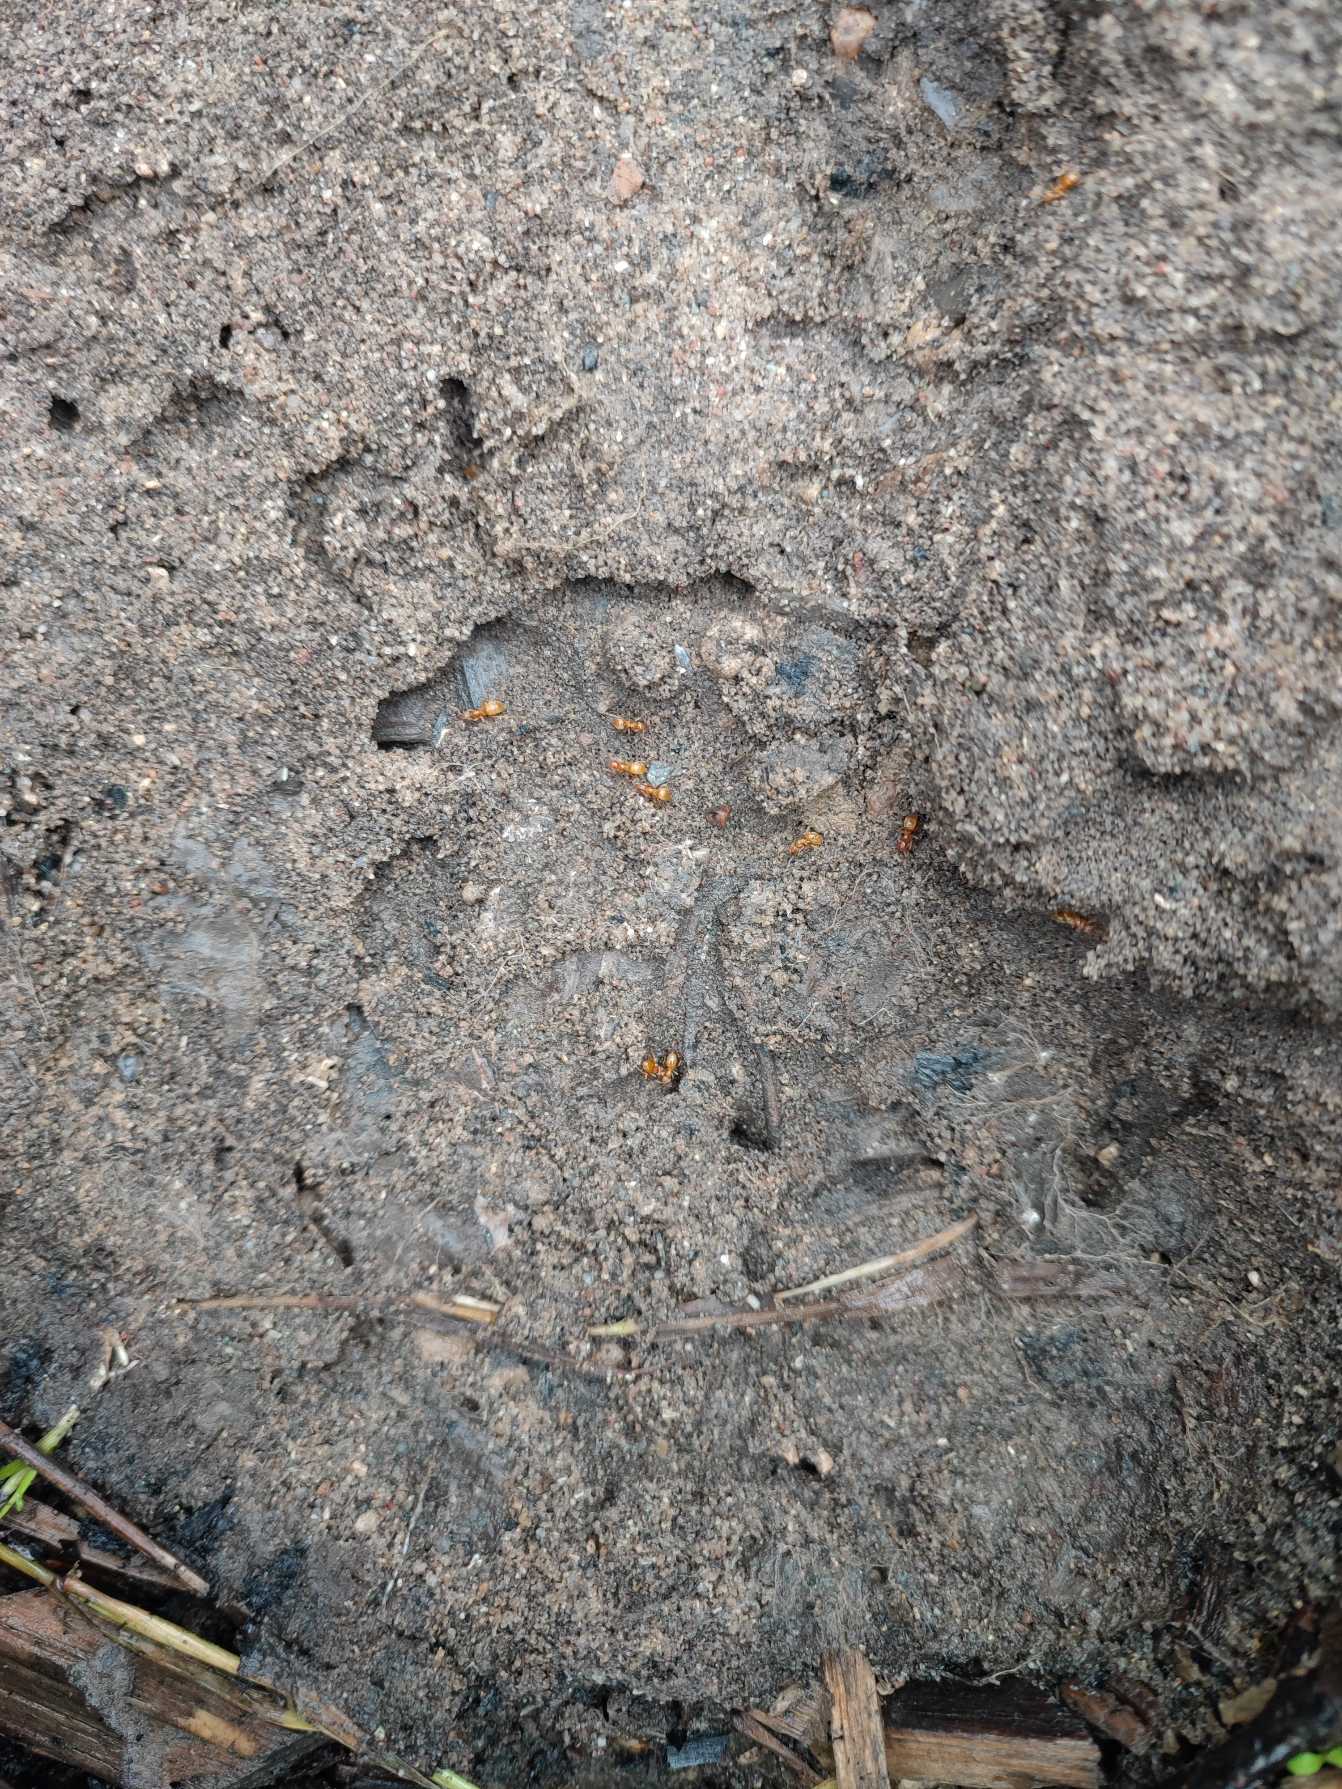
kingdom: Animalia
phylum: Arthropoda
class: Insecta
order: Hymenoptera
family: Formicidae
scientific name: Formicidae
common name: Myrer
